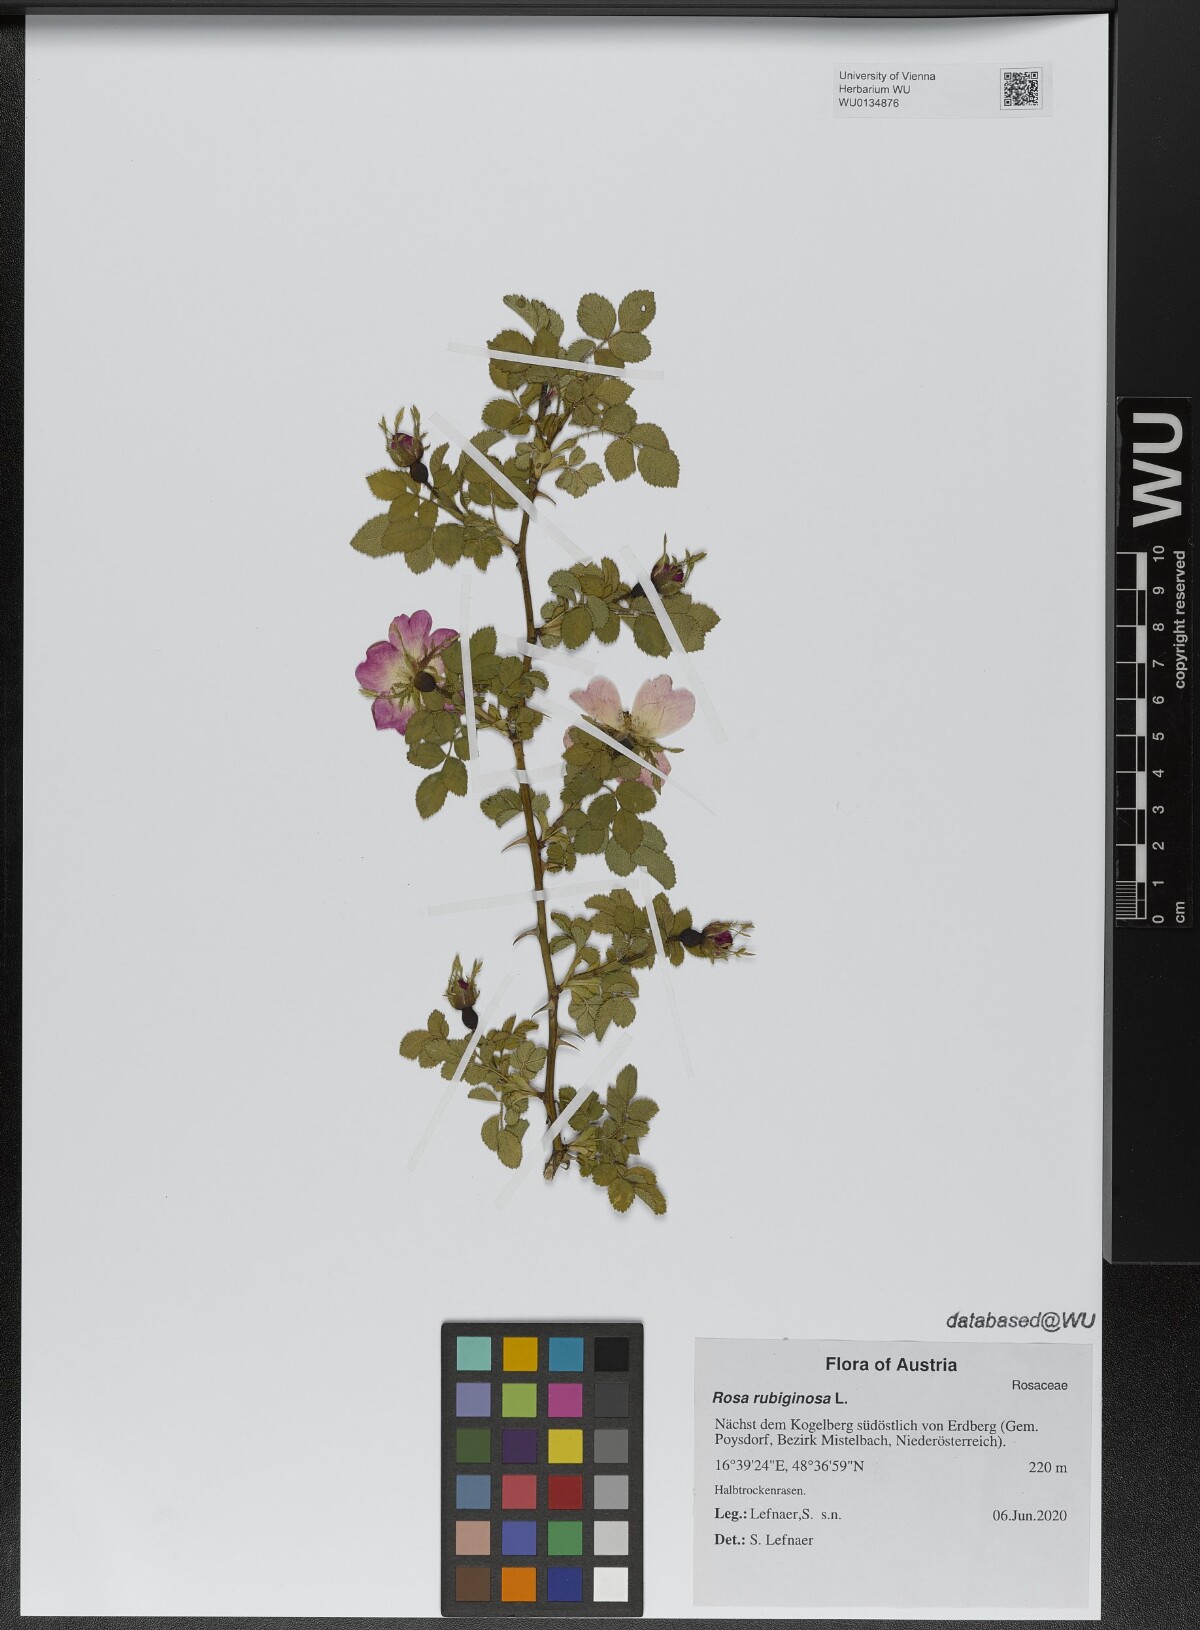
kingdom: Plantae
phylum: Tracheophyta
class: Magnoliopsida
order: Rosales
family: Rosaceae
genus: Rosa
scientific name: Rosa rubiginosa
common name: Sweet-briar
